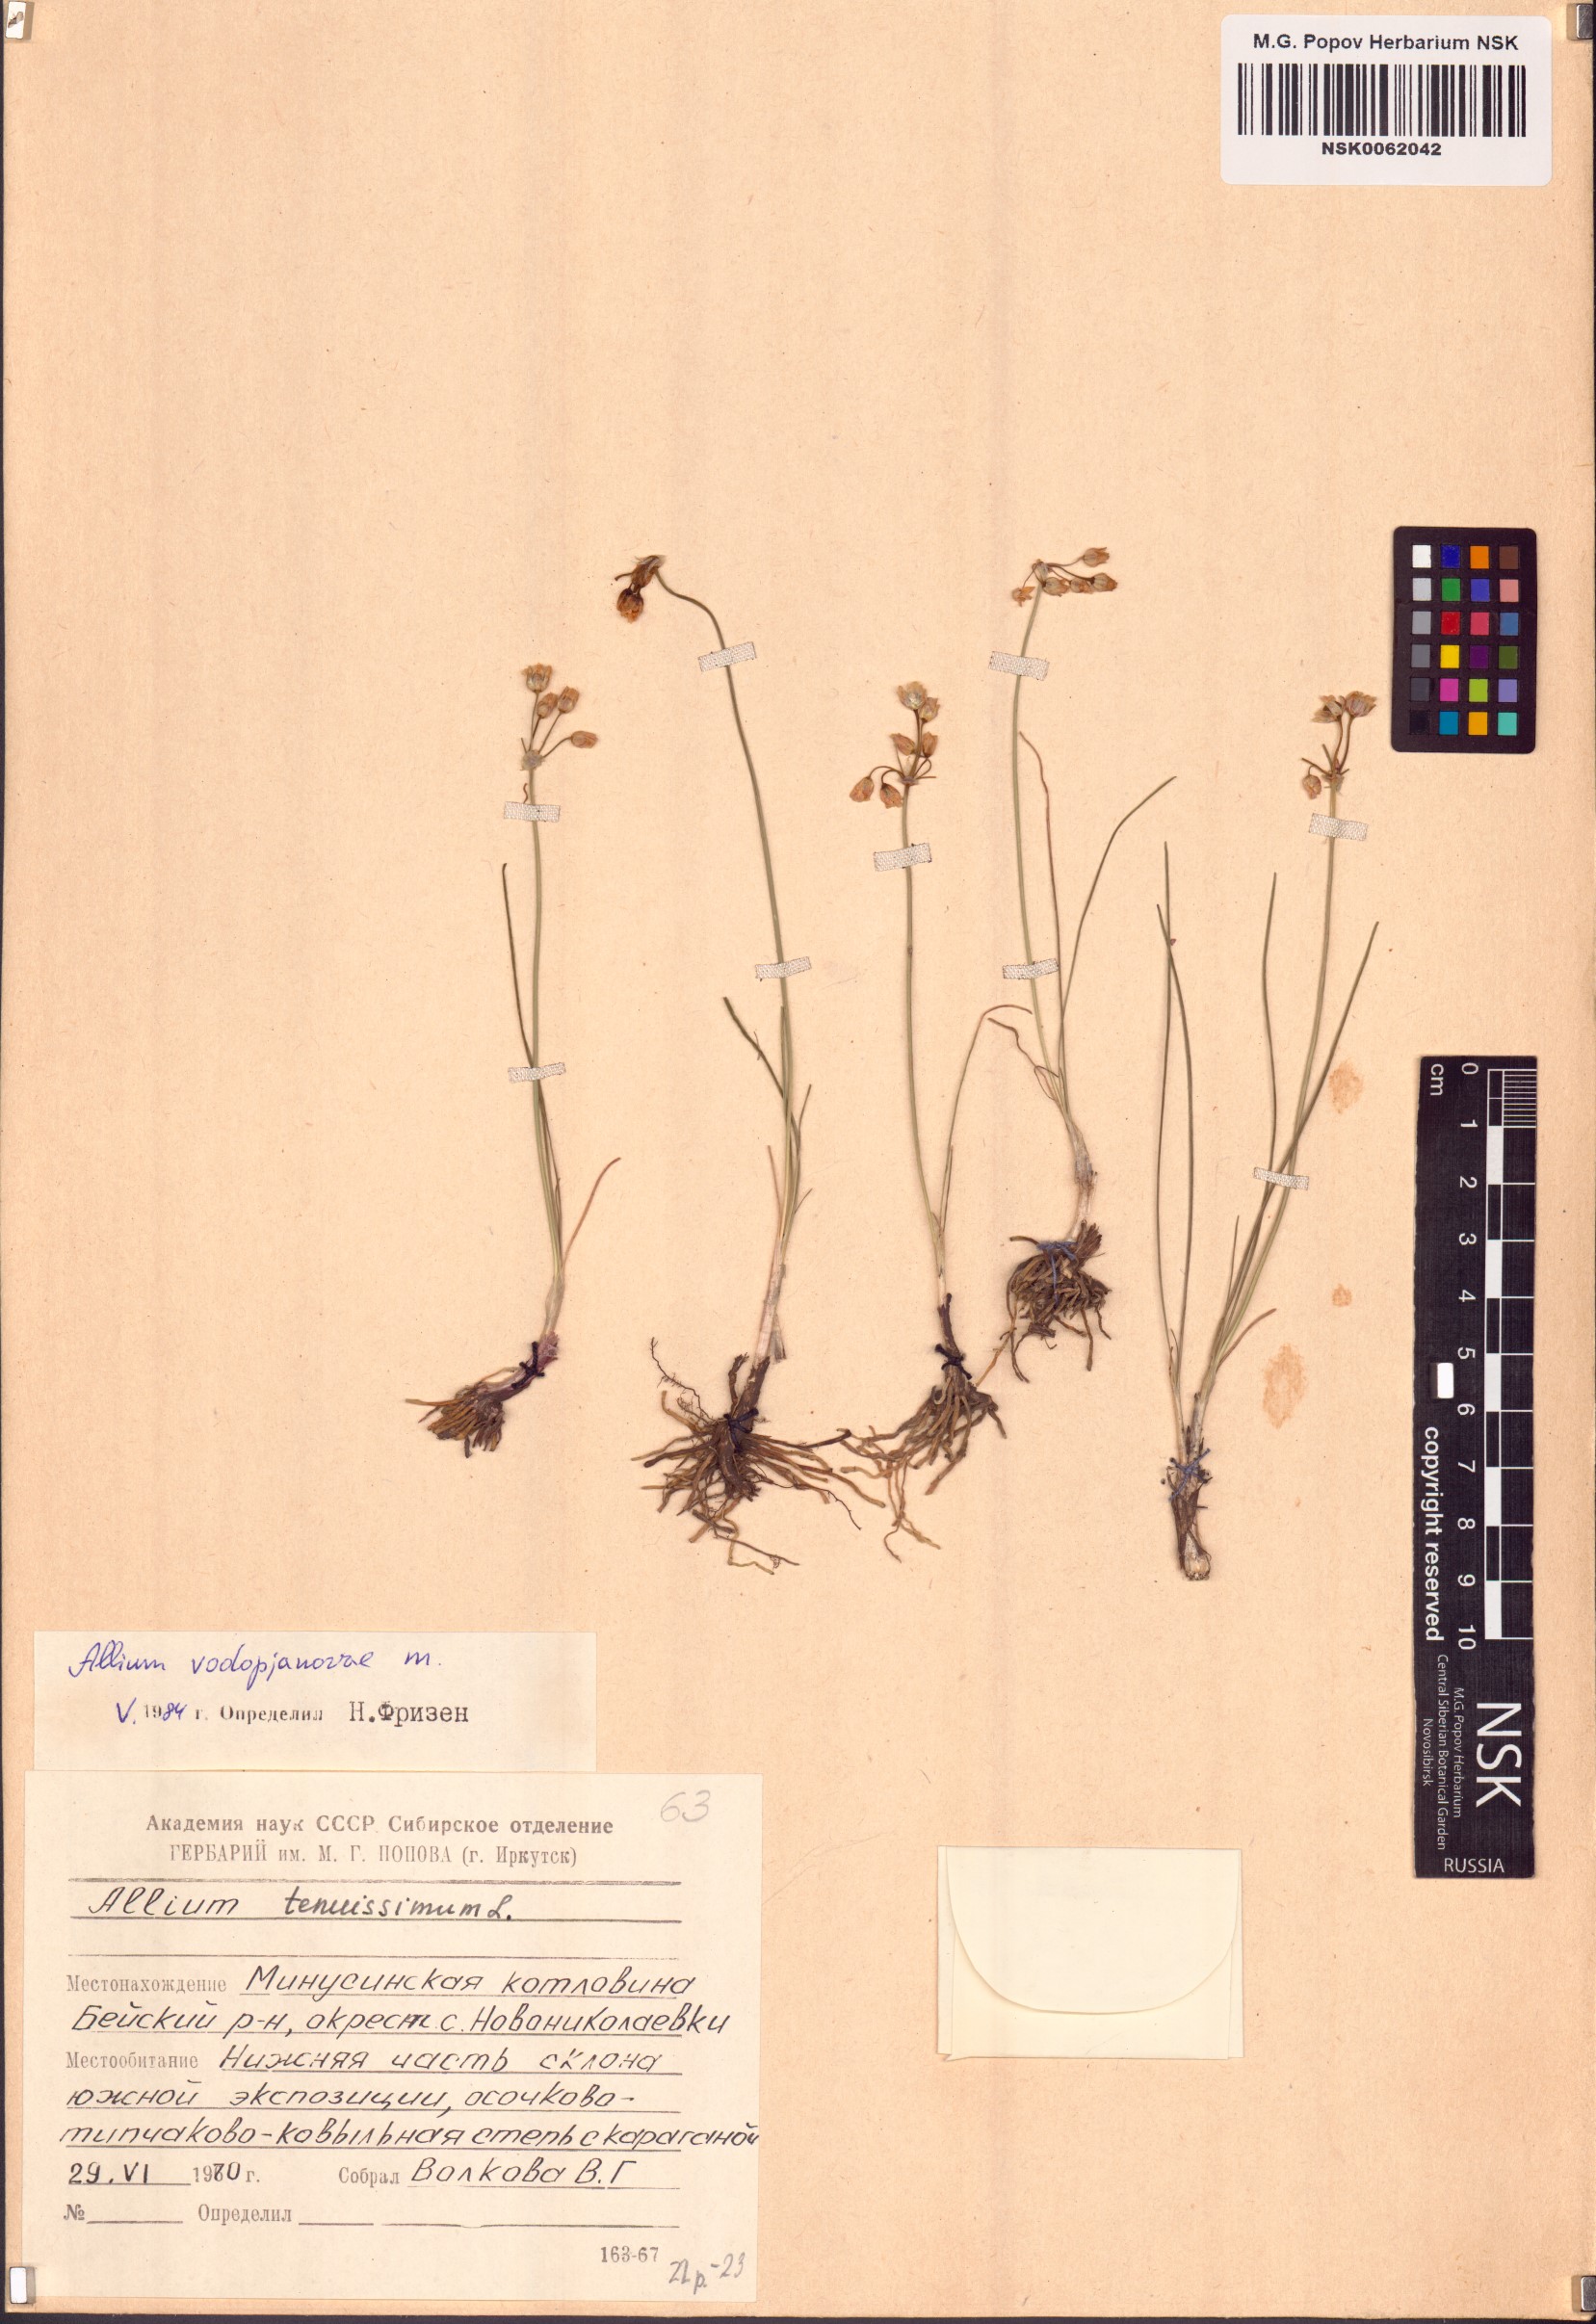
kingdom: Plantae
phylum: Tracheophyta
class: Liliopsida
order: Asparagales
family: Amaryllidaceae
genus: Allium
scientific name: Allium vodopjanovae
